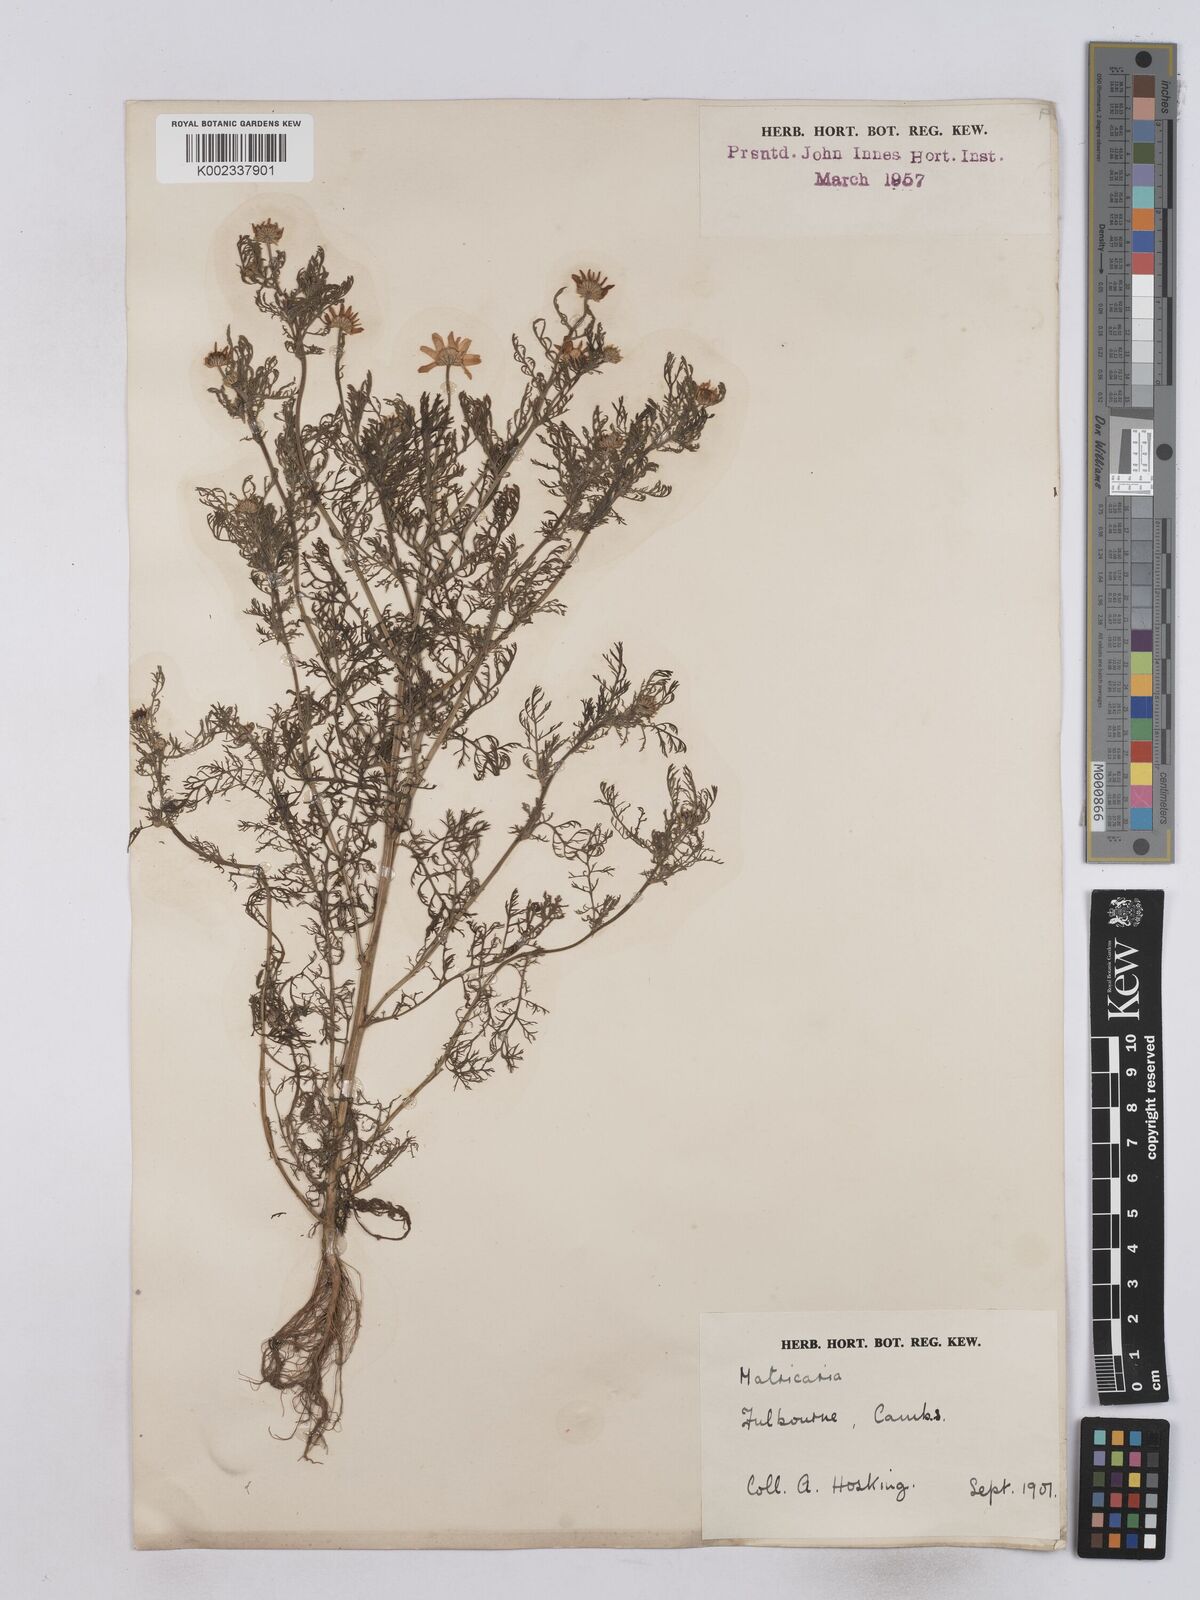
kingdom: Plantae
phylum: Tracheophyta
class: Magnoliopsida
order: Asterales
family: Asteraceae
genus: Matricaria
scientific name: Matricaria discoidea
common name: Disc mayweed
